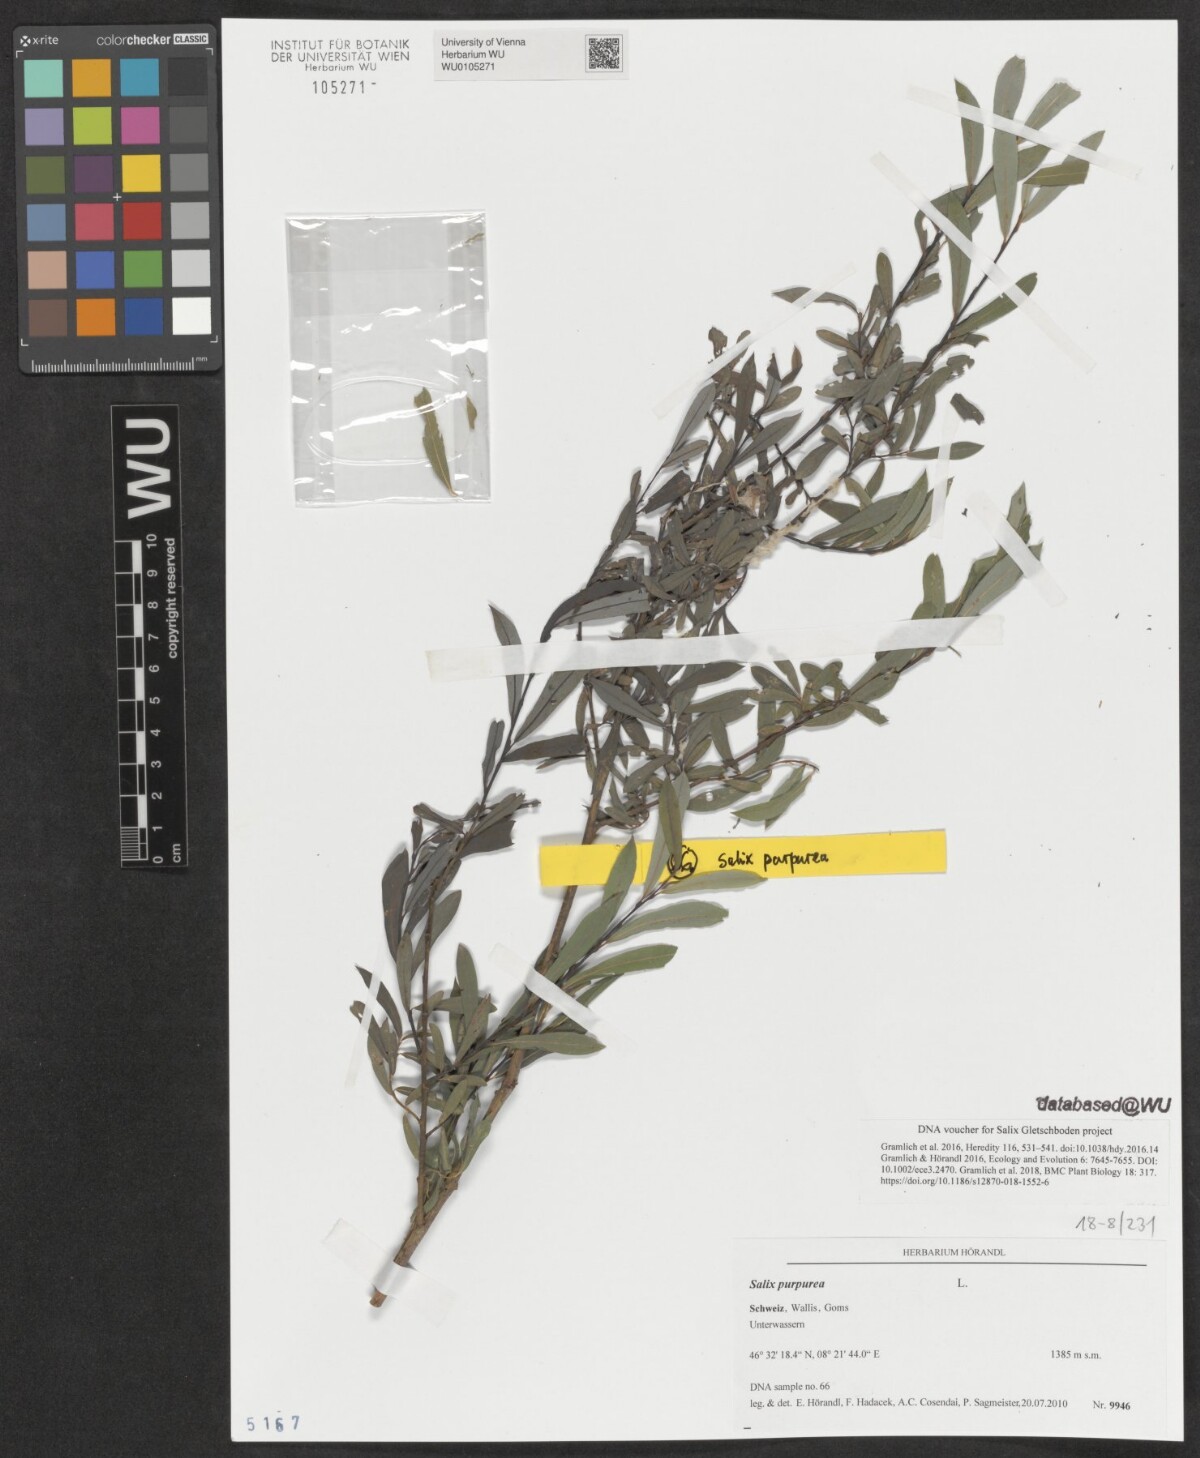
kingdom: Plantae
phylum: Tracheophyta
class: Magnoliopsida
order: Malpighiales
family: Salicaceae
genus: Salix
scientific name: Salix purpurea
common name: Purple willow
